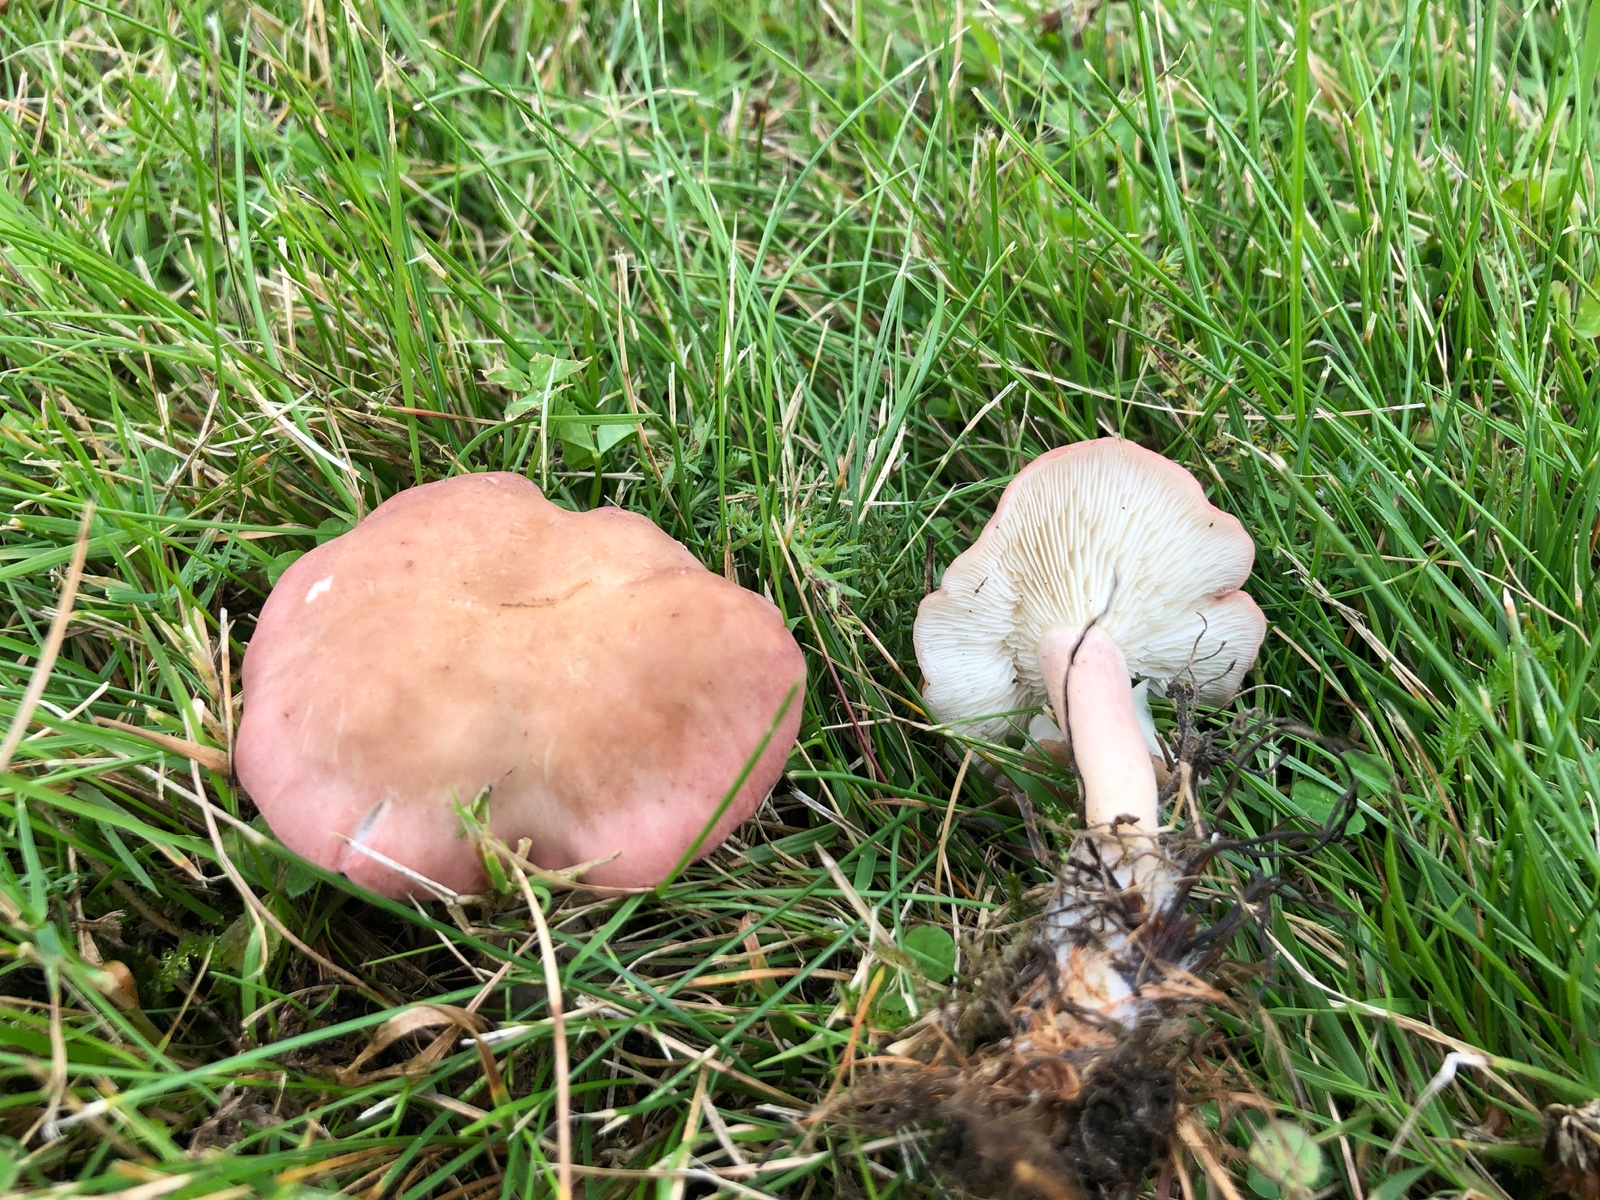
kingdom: Fungi
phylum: Basidiomycota
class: Agaricomycetes
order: Agaricales
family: Lyophyllaceae
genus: Calocybe
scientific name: Calocybe carnea
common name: rosa fagerhat
